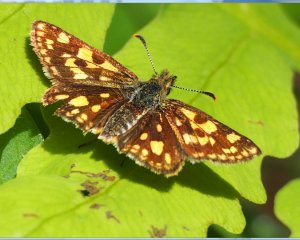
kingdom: Animalia
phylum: Arthropoda
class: Insecta
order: Lepidoptera
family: Hesperiidae
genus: Carterocephalus
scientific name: Carterocephalus palaemon
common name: Chequered Skipper
